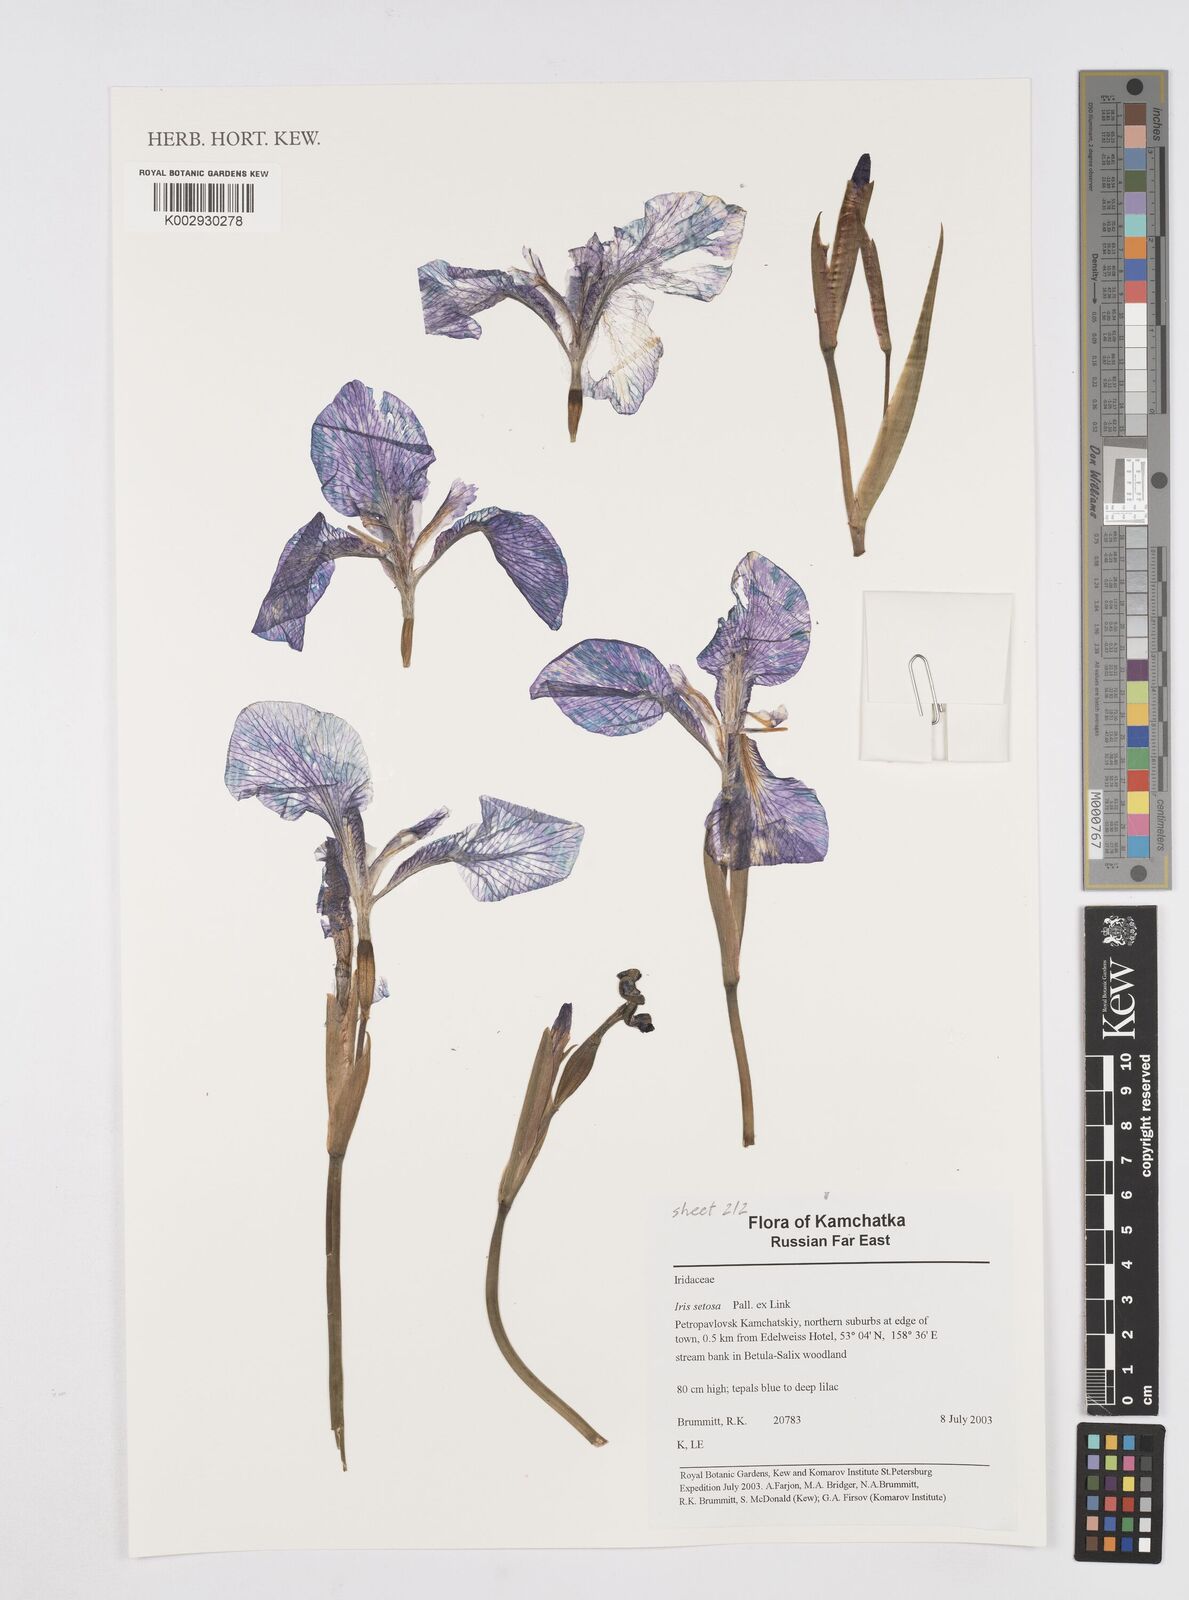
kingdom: Plantae
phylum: Tracheophyta
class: Liliopsida
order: Asparagales
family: Iridaceae
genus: Iris
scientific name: Iris setosa
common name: Arctic blue flag
